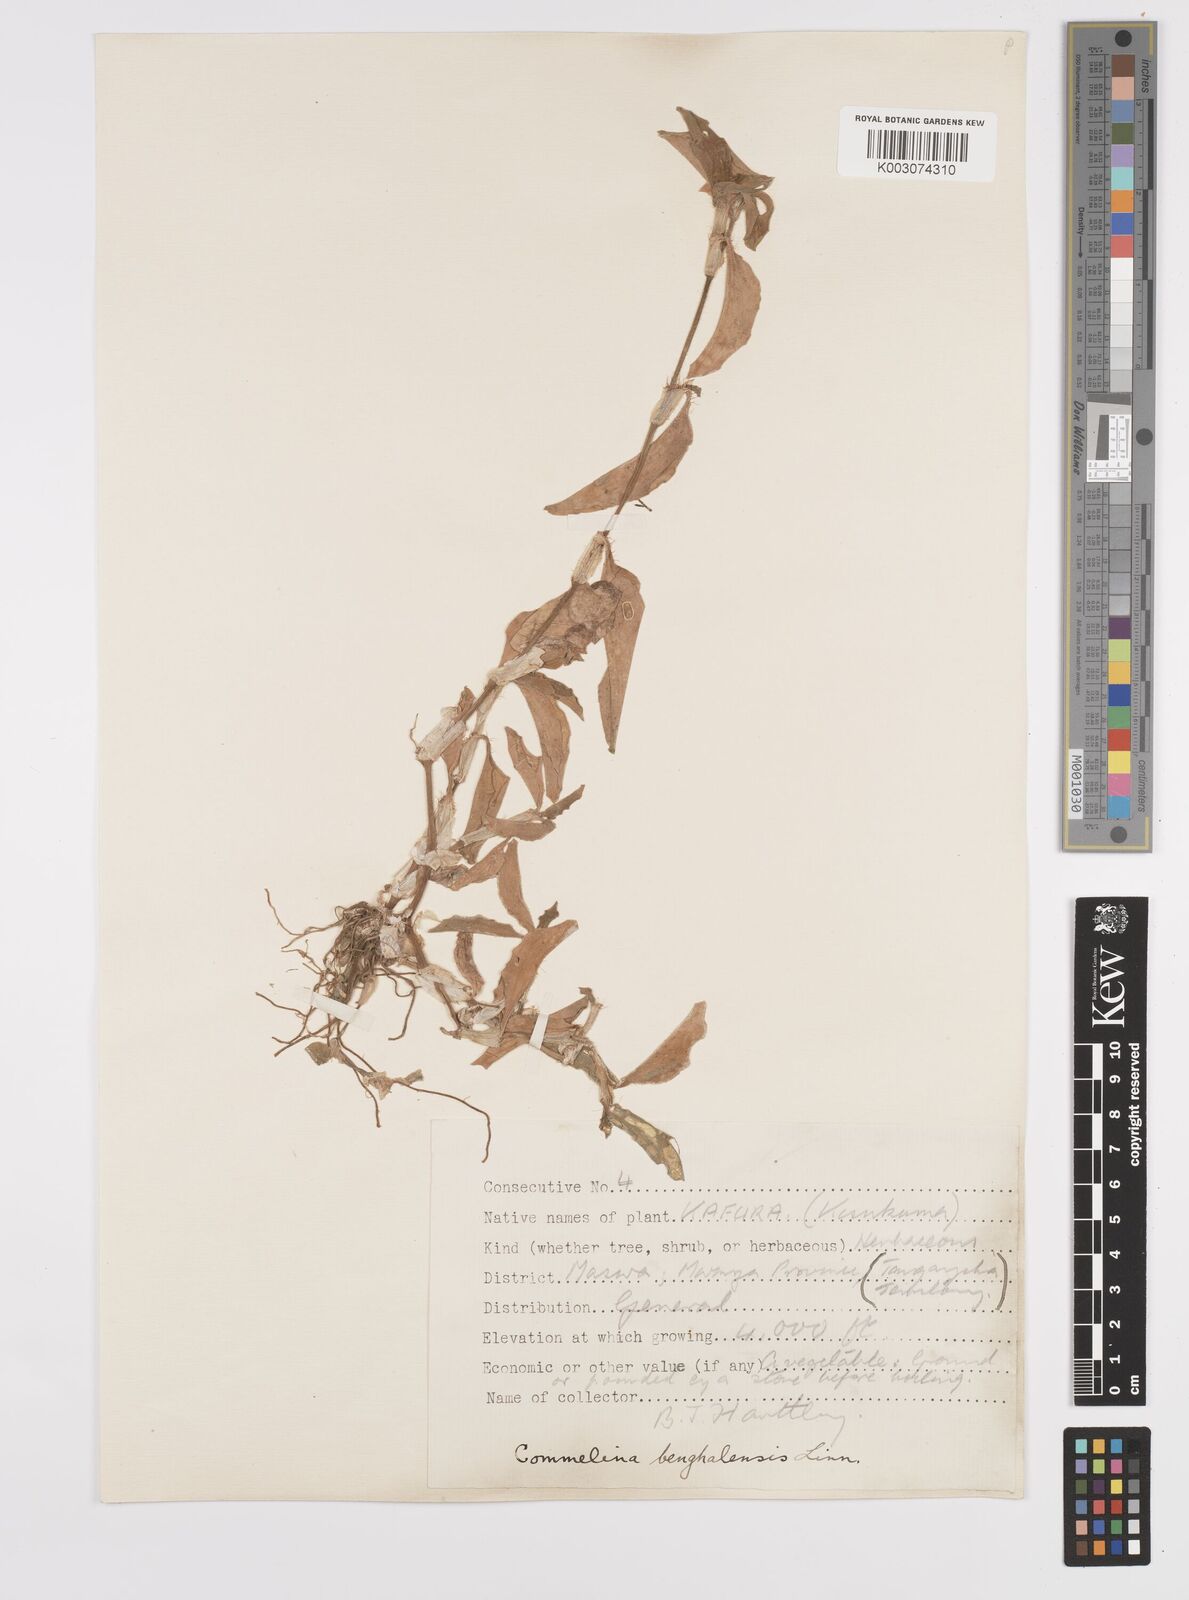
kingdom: Plantae
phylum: Tracheophyta
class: Liliopsida
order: Commelinales
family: Commelinaceae
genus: Commelina
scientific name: Commelina benghalensis
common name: Jio
